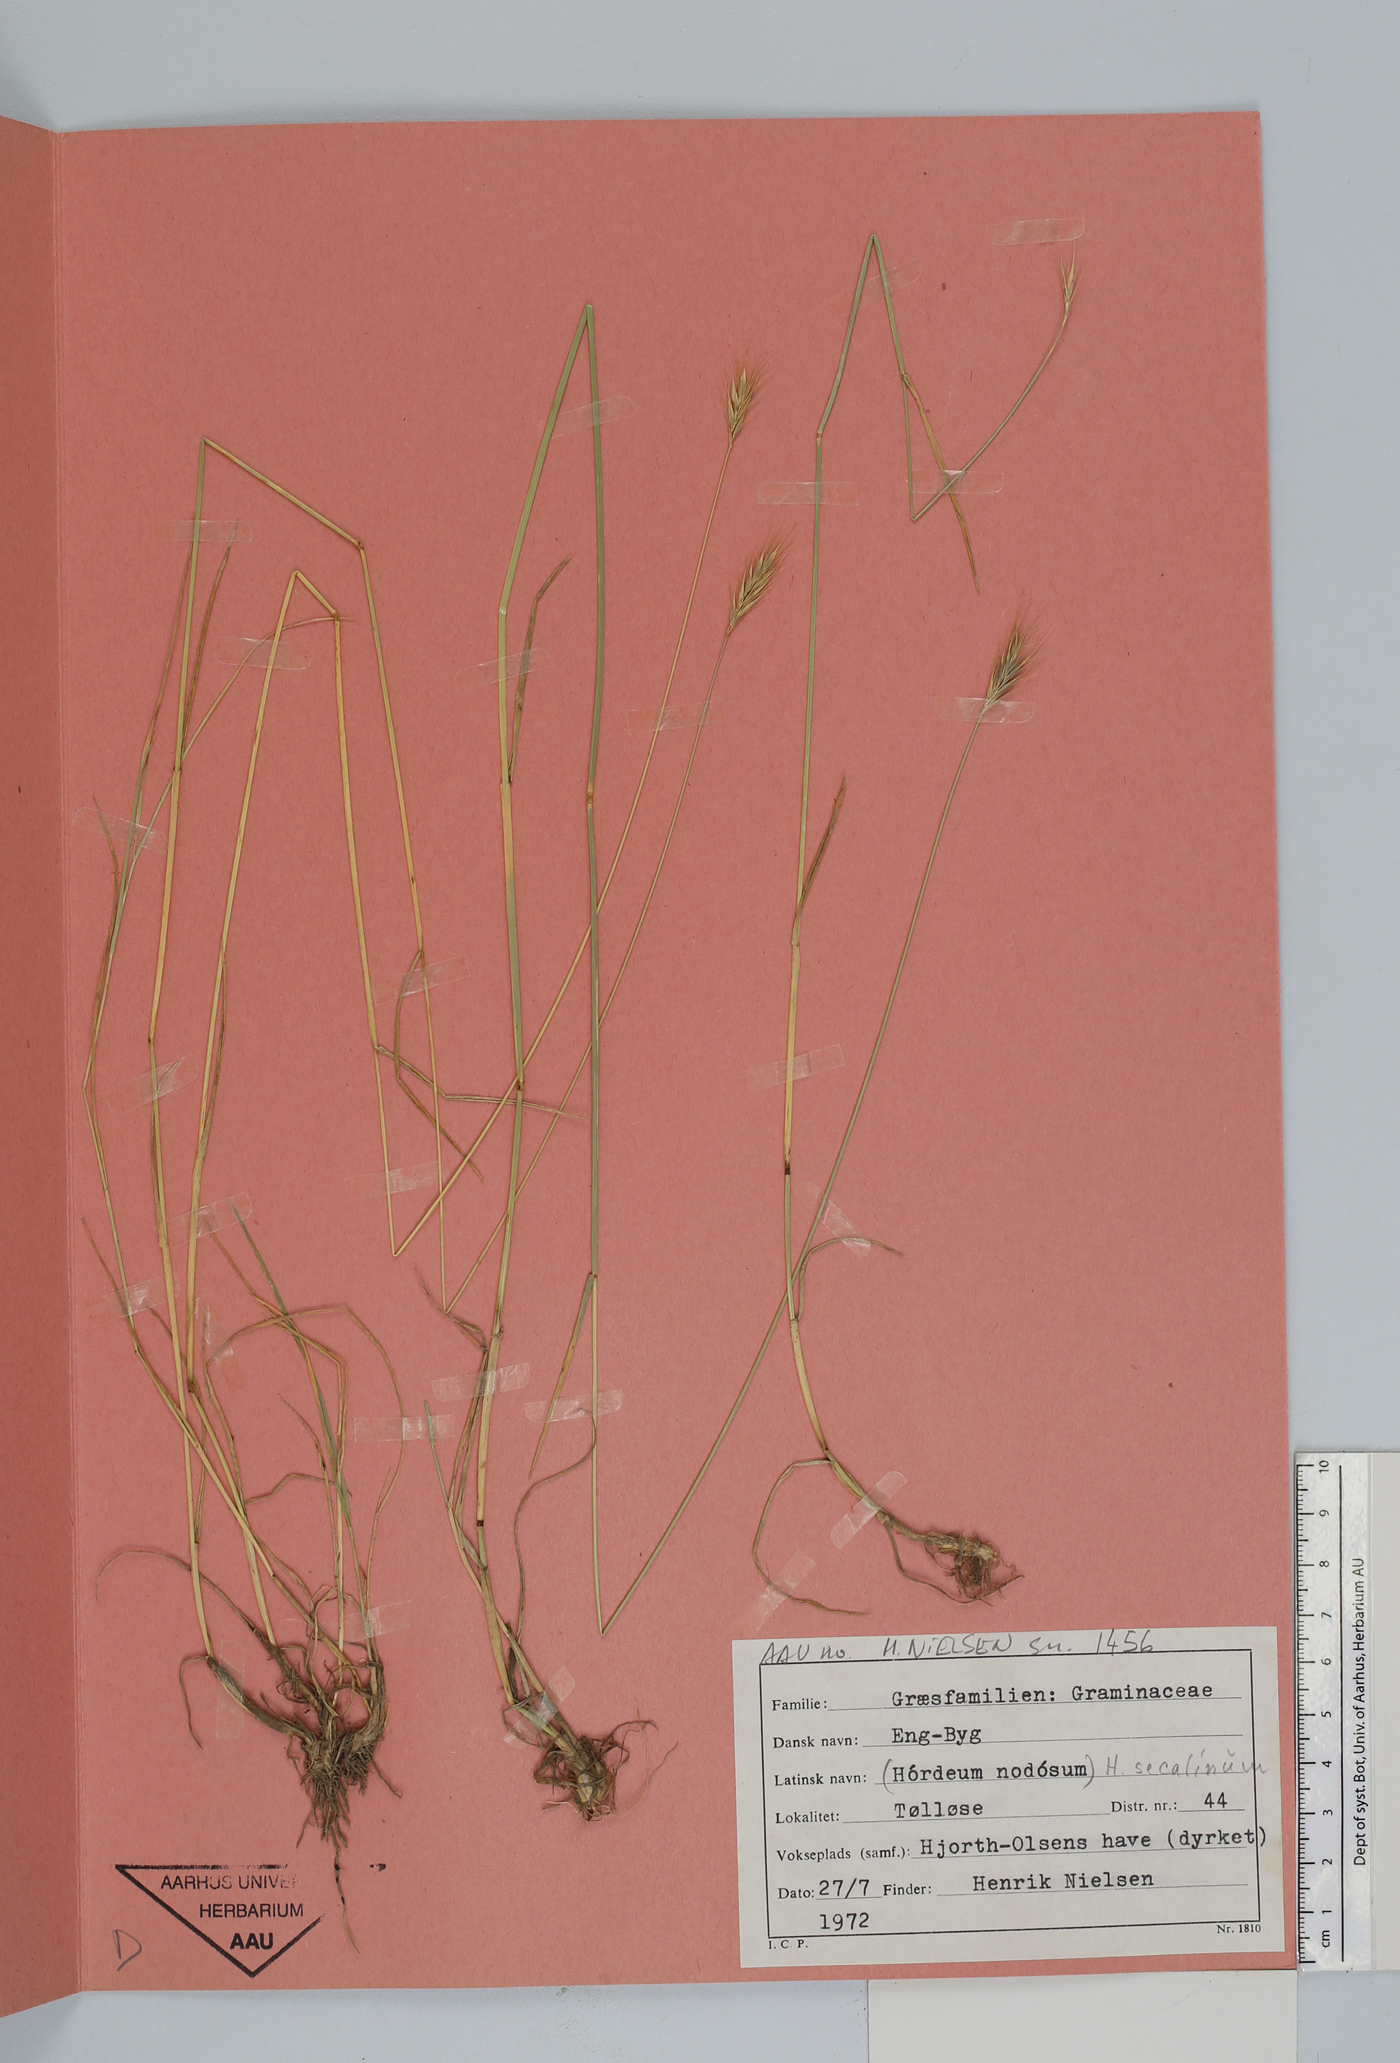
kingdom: Plantae
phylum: Tracheophyta
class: Liliopsida
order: Poales
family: Poaceae
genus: Hordeum
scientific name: Hordeum secalinum
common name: Meadow barley
